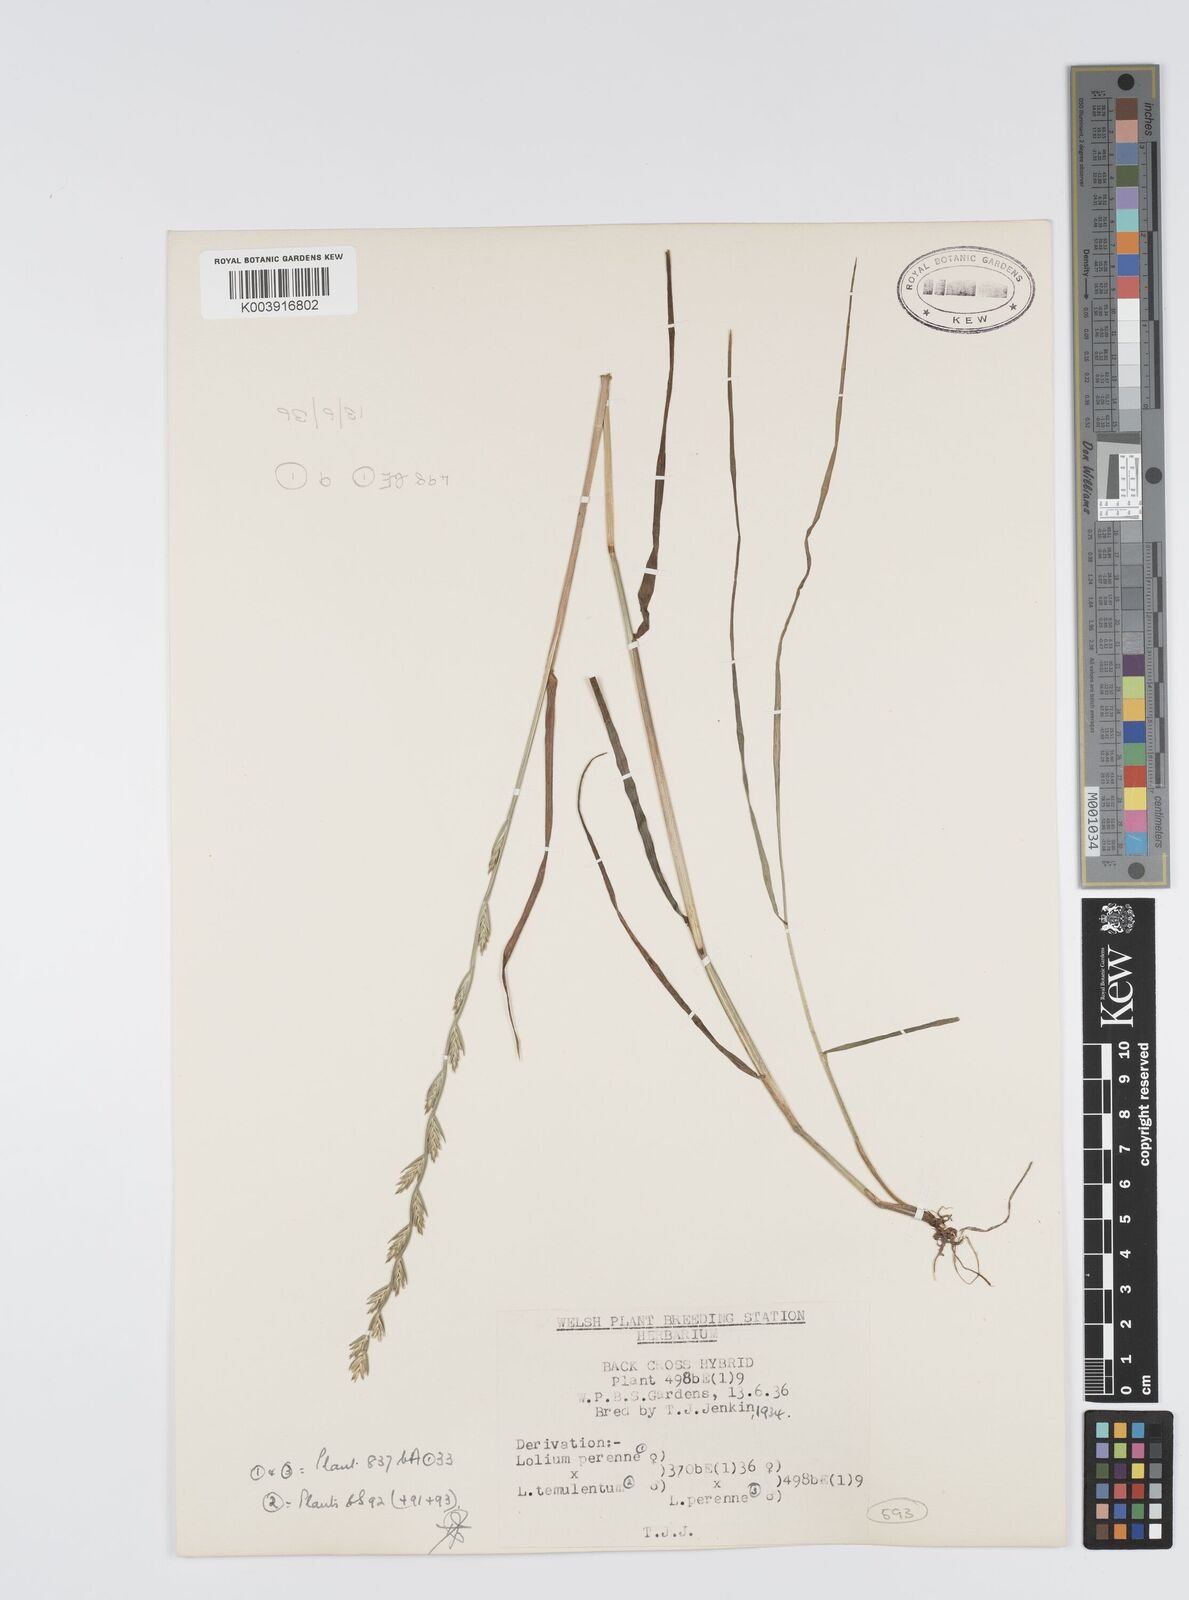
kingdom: Plantae
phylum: Tracheophyta
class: Liliopsida
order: Poales
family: Poaceae
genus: Lolium
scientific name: Lolium perenne
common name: Perennial ryegrass
